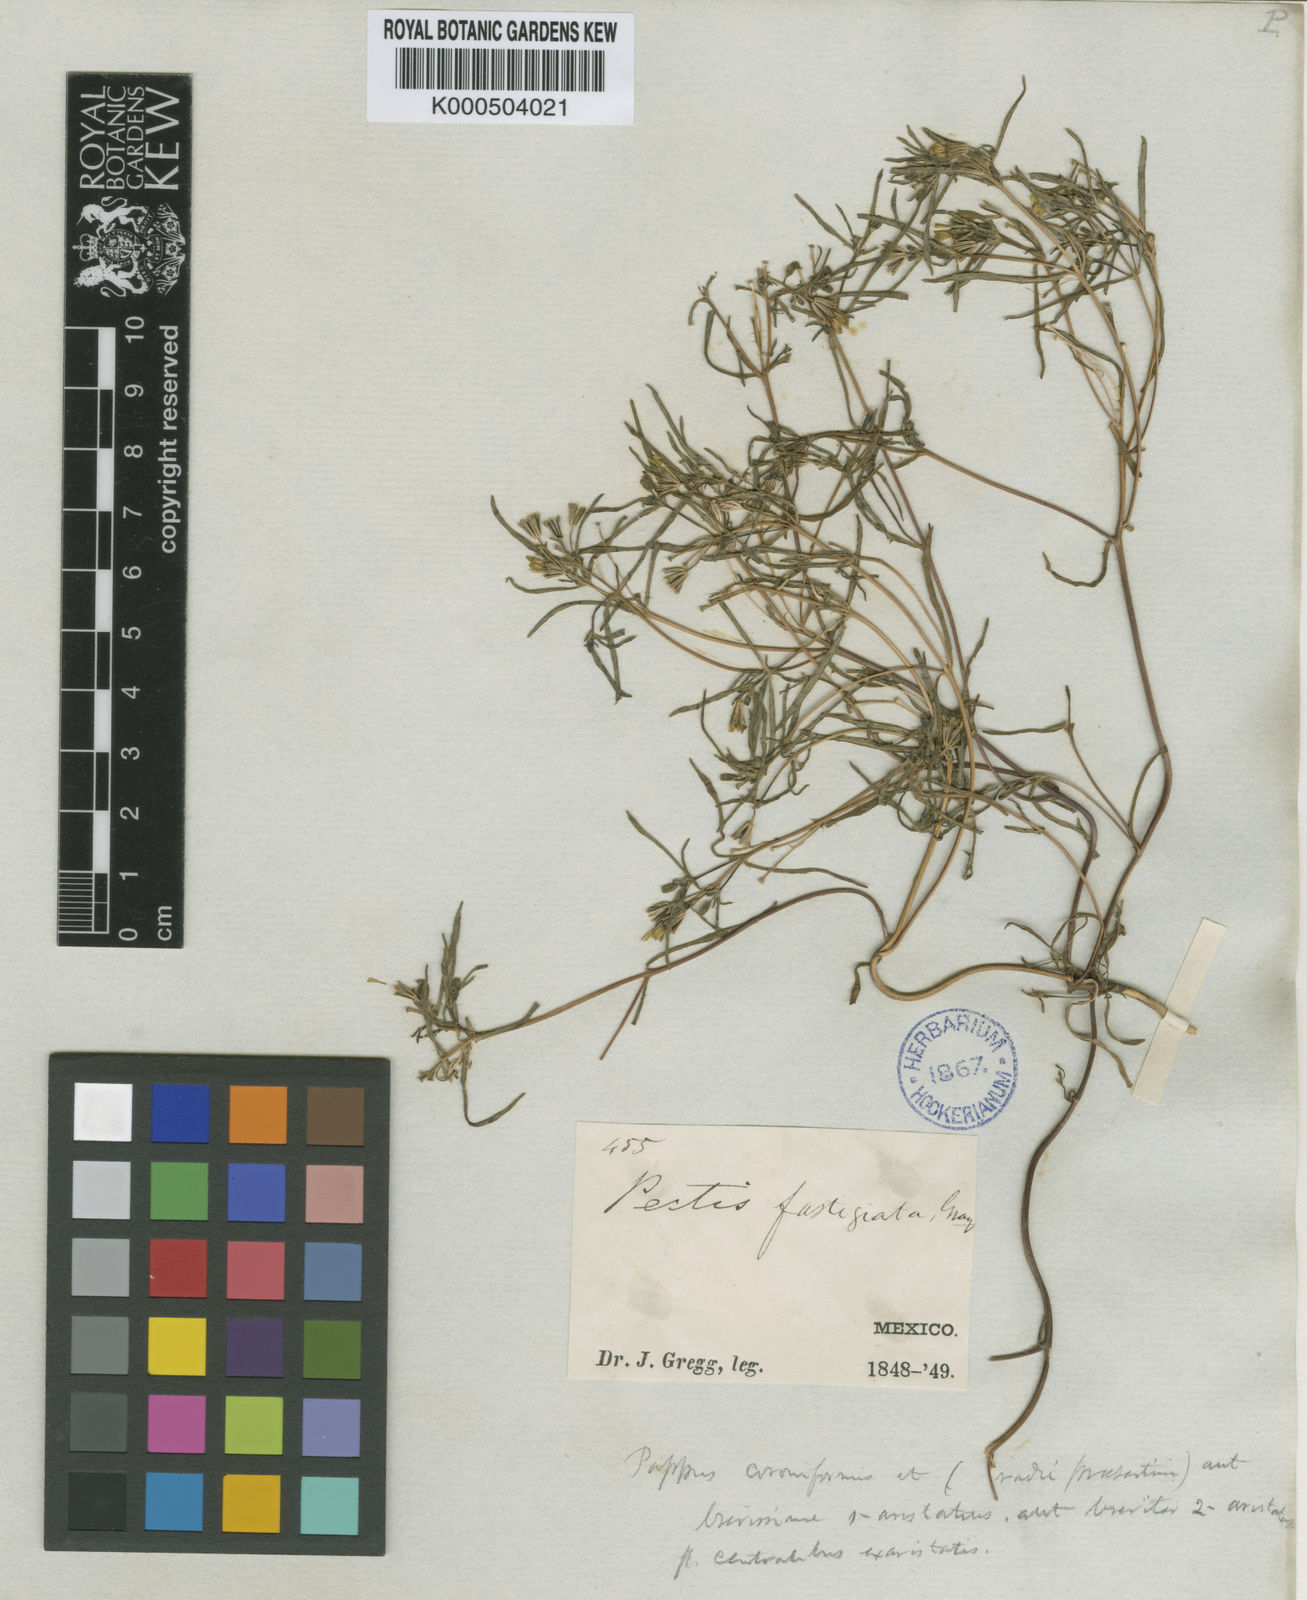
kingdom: Plantae
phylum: Tracheophyta
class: Magnoliopsida
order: Asterales
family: Asteraceae
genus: Pectis
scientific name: Pectis angustifolia
